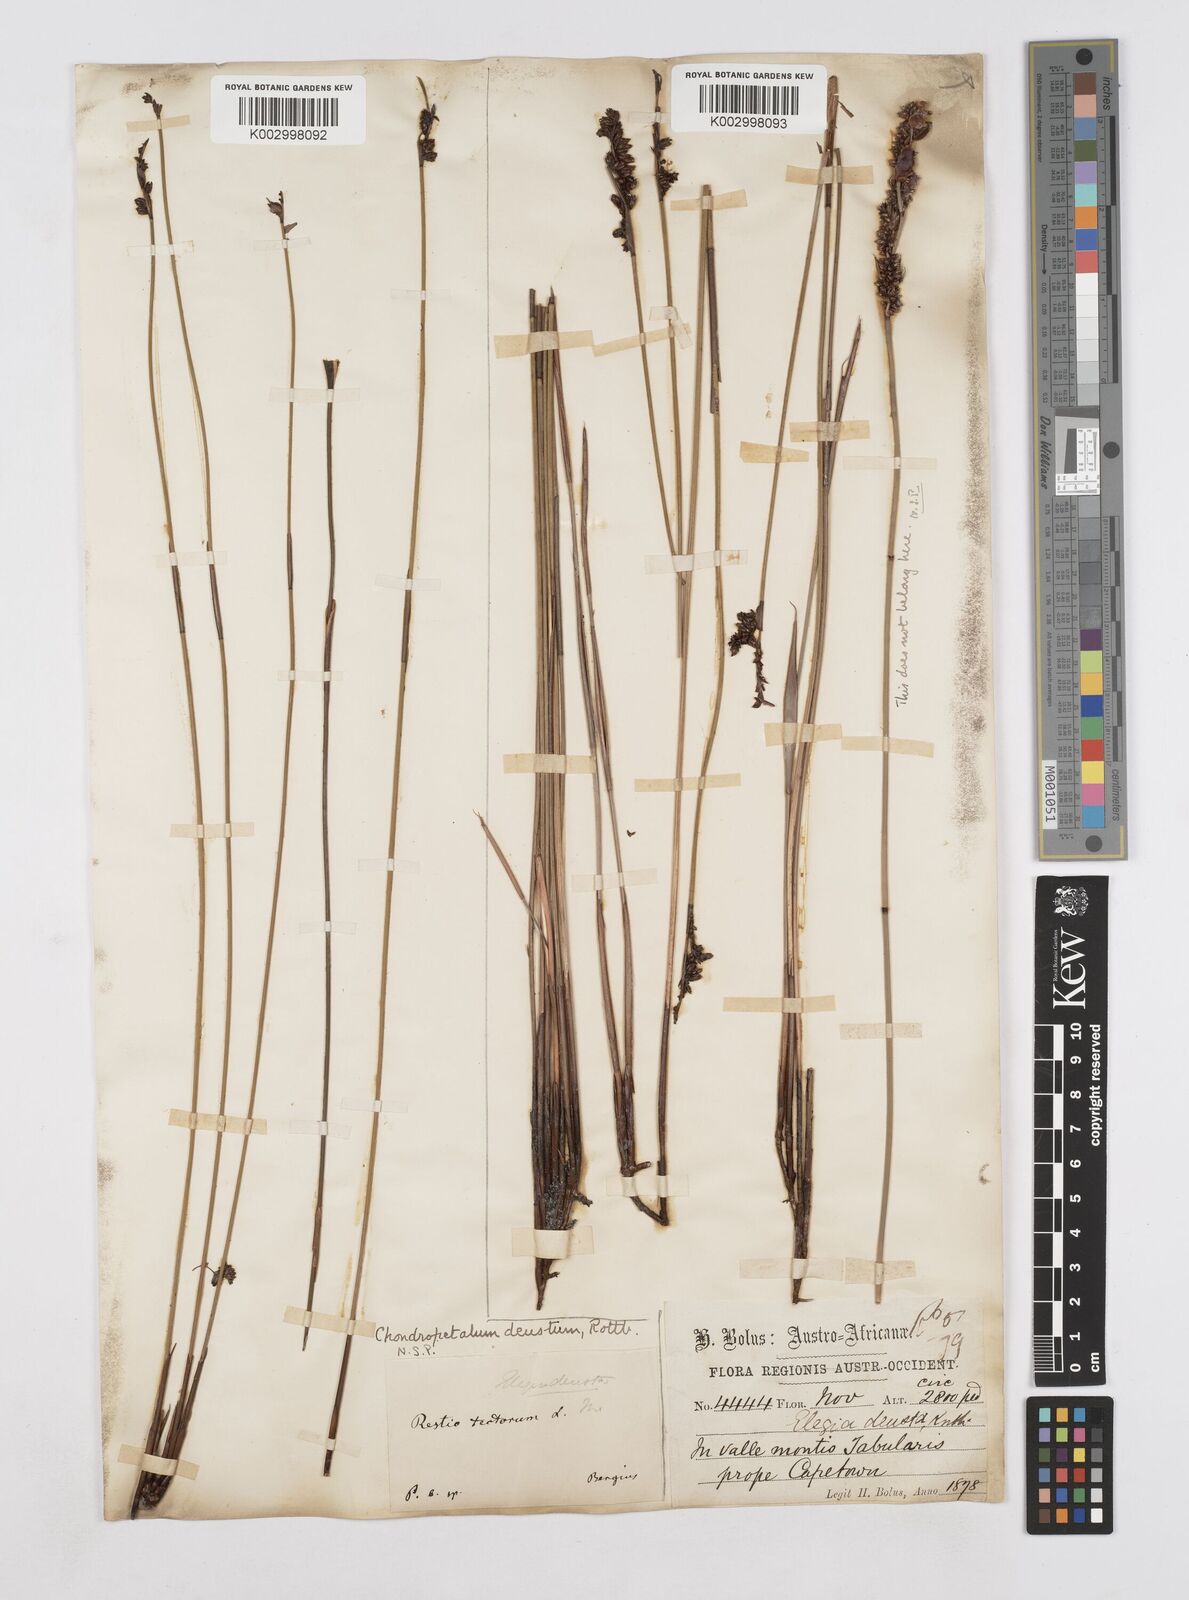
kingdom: Plantae
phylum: Tracheophyta
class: Liliopsida
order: Poales
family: Restionaceae
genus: Elegia
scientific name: Elegia deusta
